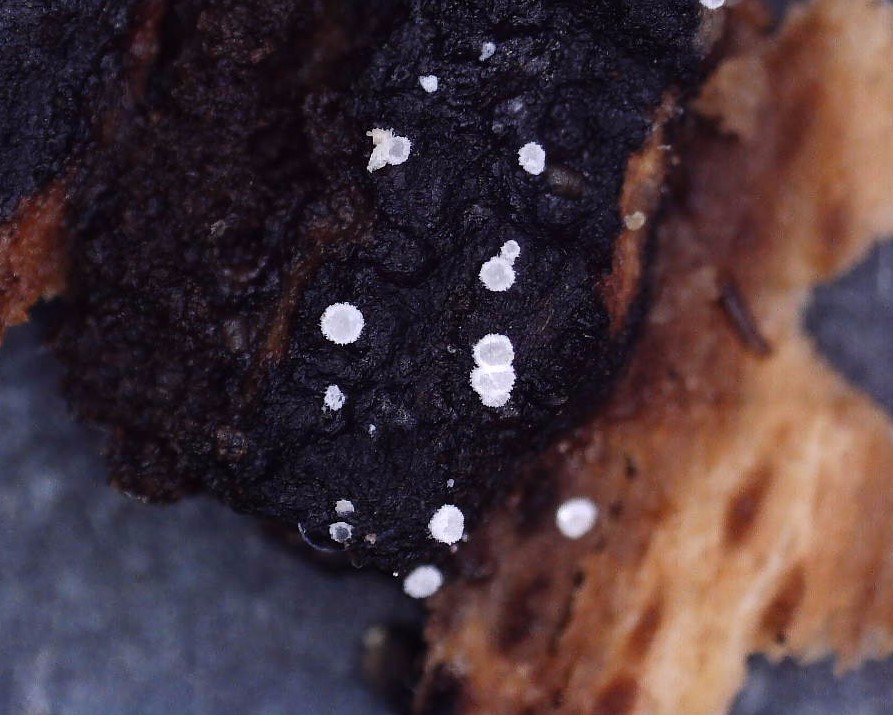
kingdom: Fungi
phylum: Ascomycota
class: Leotiomycetes
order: Helotiales
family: Hyaloscyphaceae
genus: Polydesmia
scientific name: Polydesmia pruinosa
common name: dunskive
